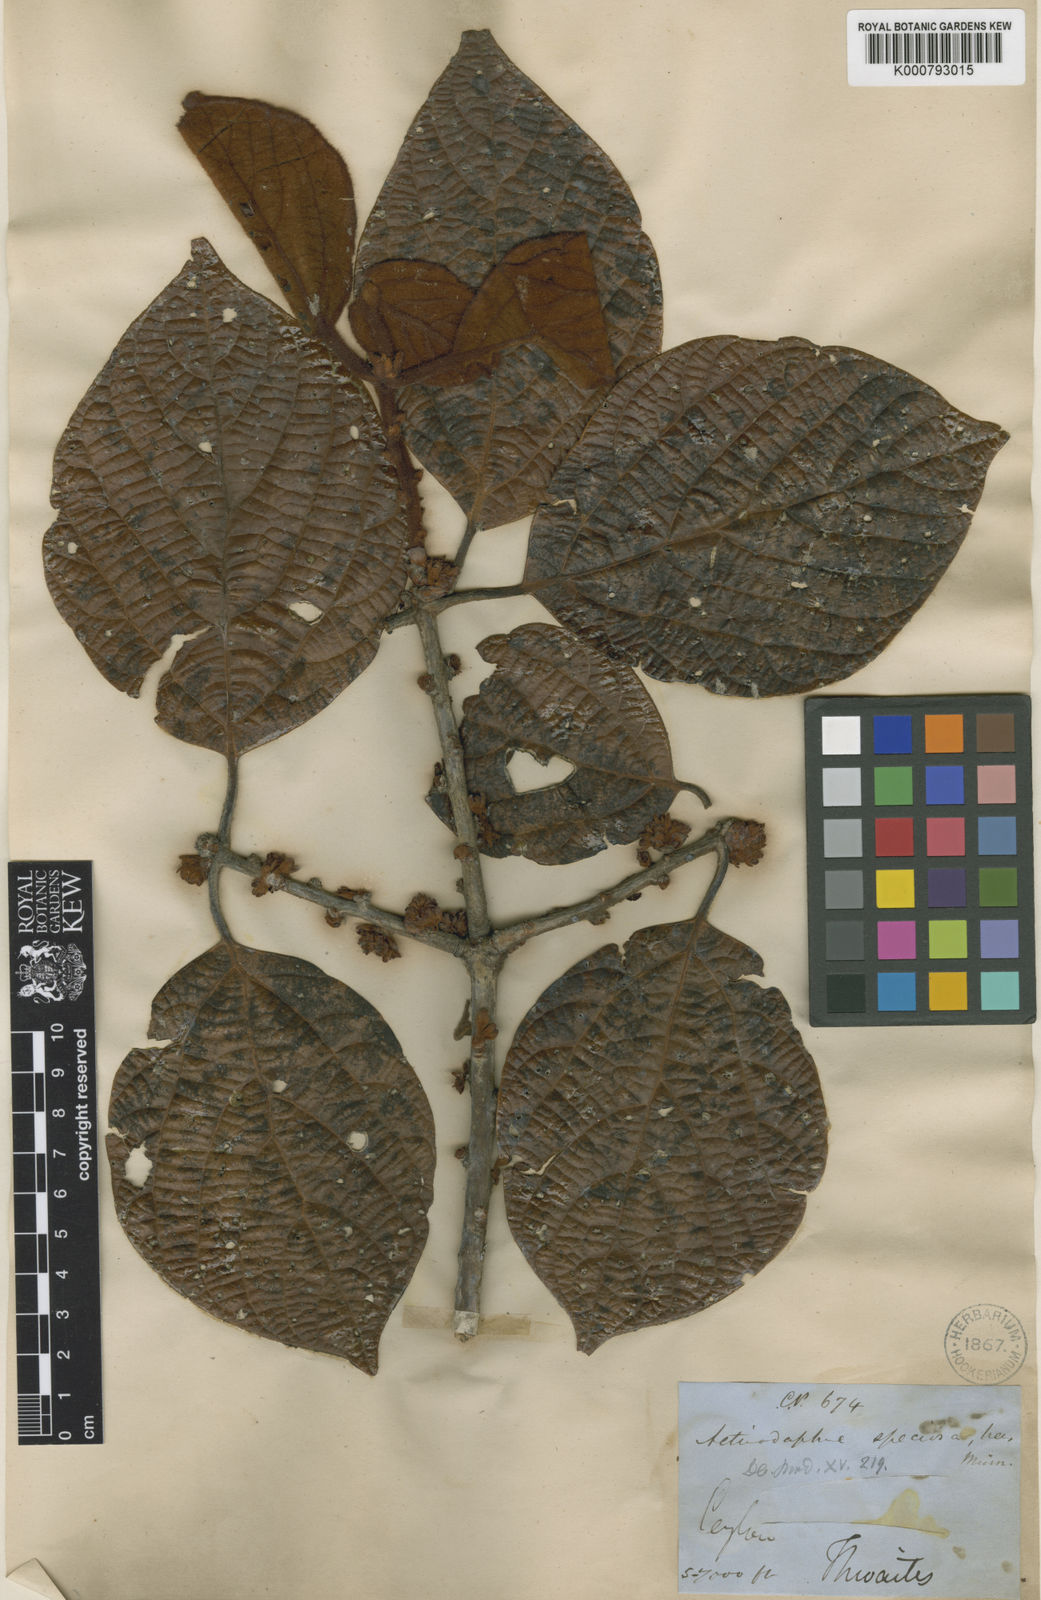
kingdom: Plantae
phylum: Tracheophyta
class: Magnoliopsida
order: Laurales
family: Lauraceae
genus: Actinodaphne
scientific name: Actinodaphne speciosa
